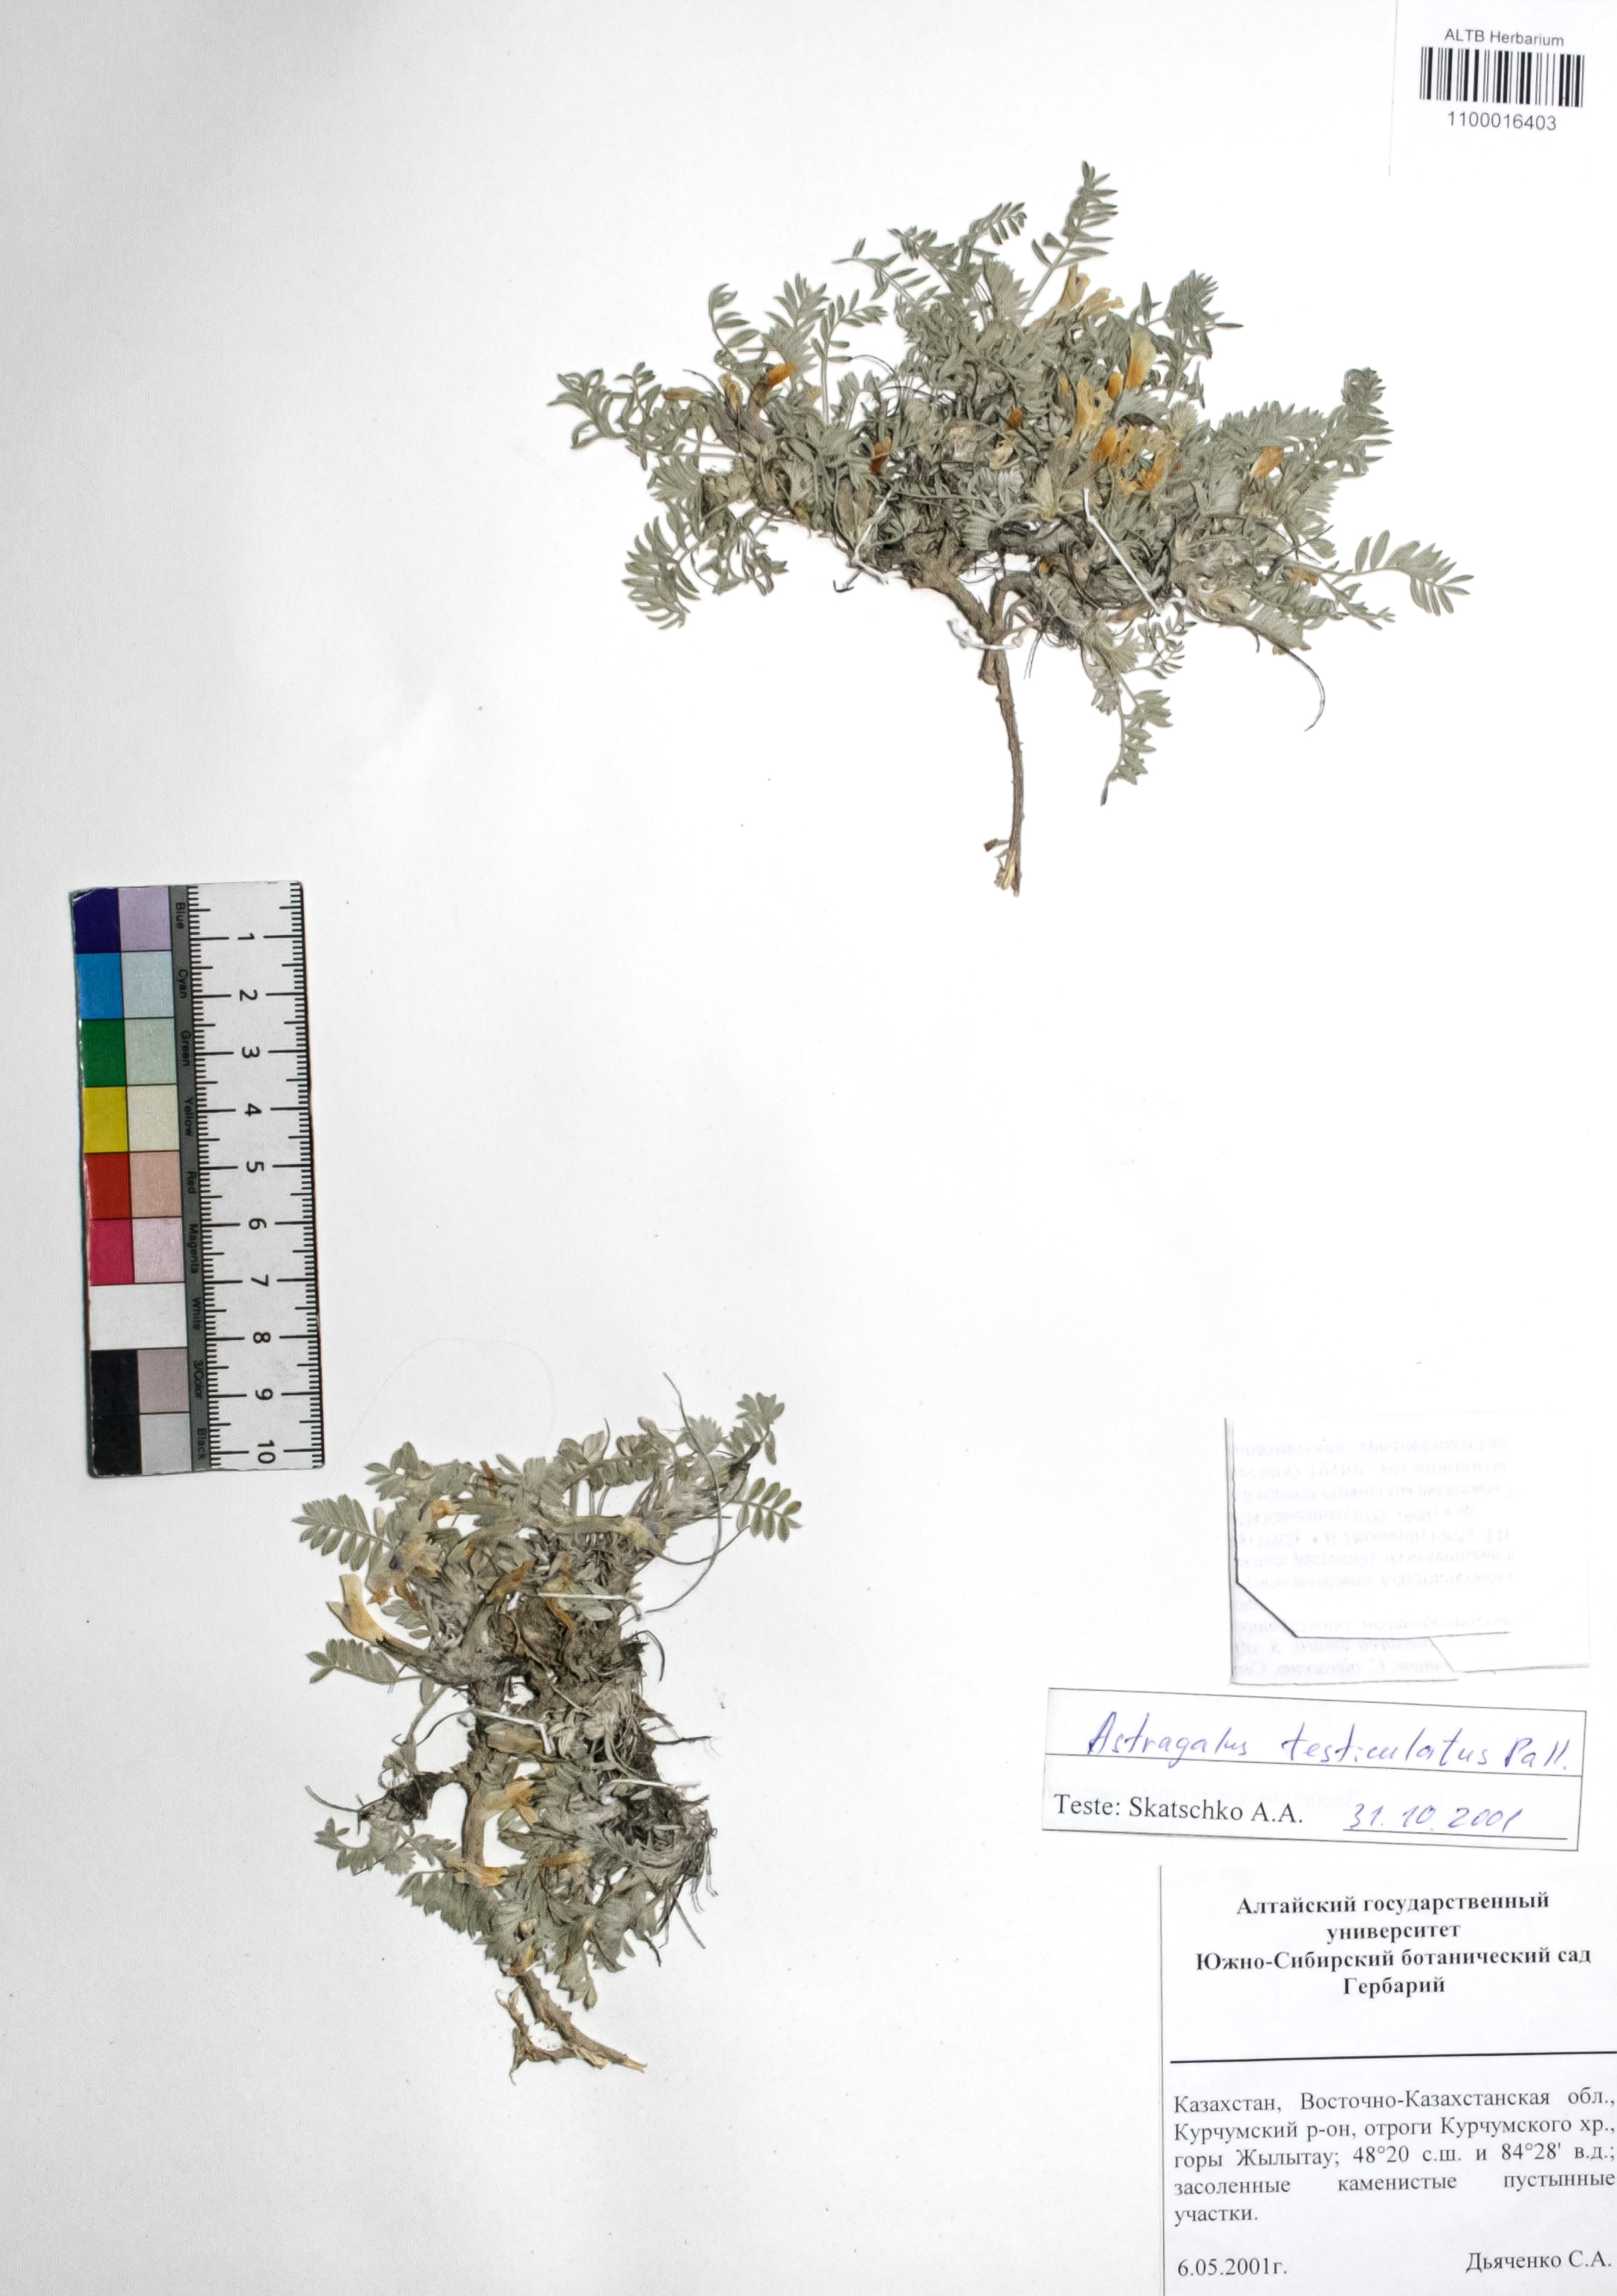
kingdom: Plantae
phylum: Tracheophyta
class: Magnoliopsida
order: Fabales
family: Fabaceae
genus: Astragalus
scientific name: Astragalus testiculatus
